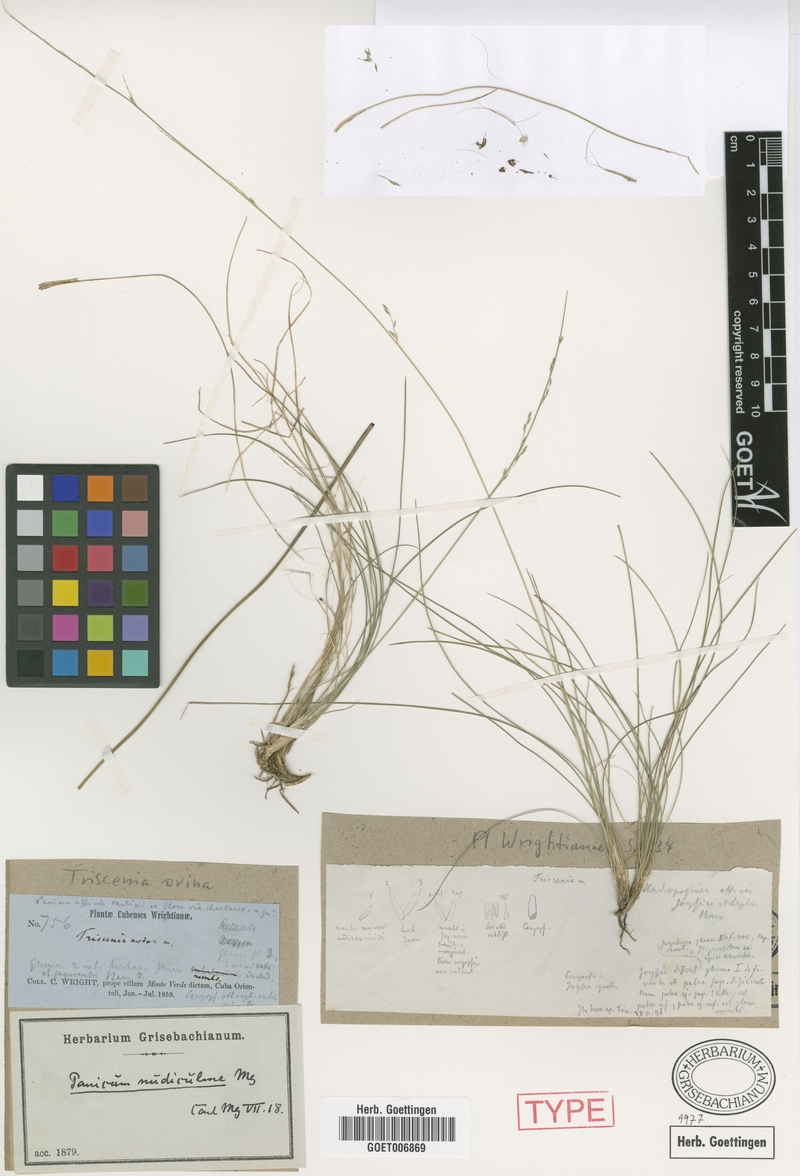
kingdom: Plantae
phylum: Tracheophyta
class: Liliopsida
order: Poales
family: Poaceae
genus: Triscenia
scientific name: Triscenia ovina
